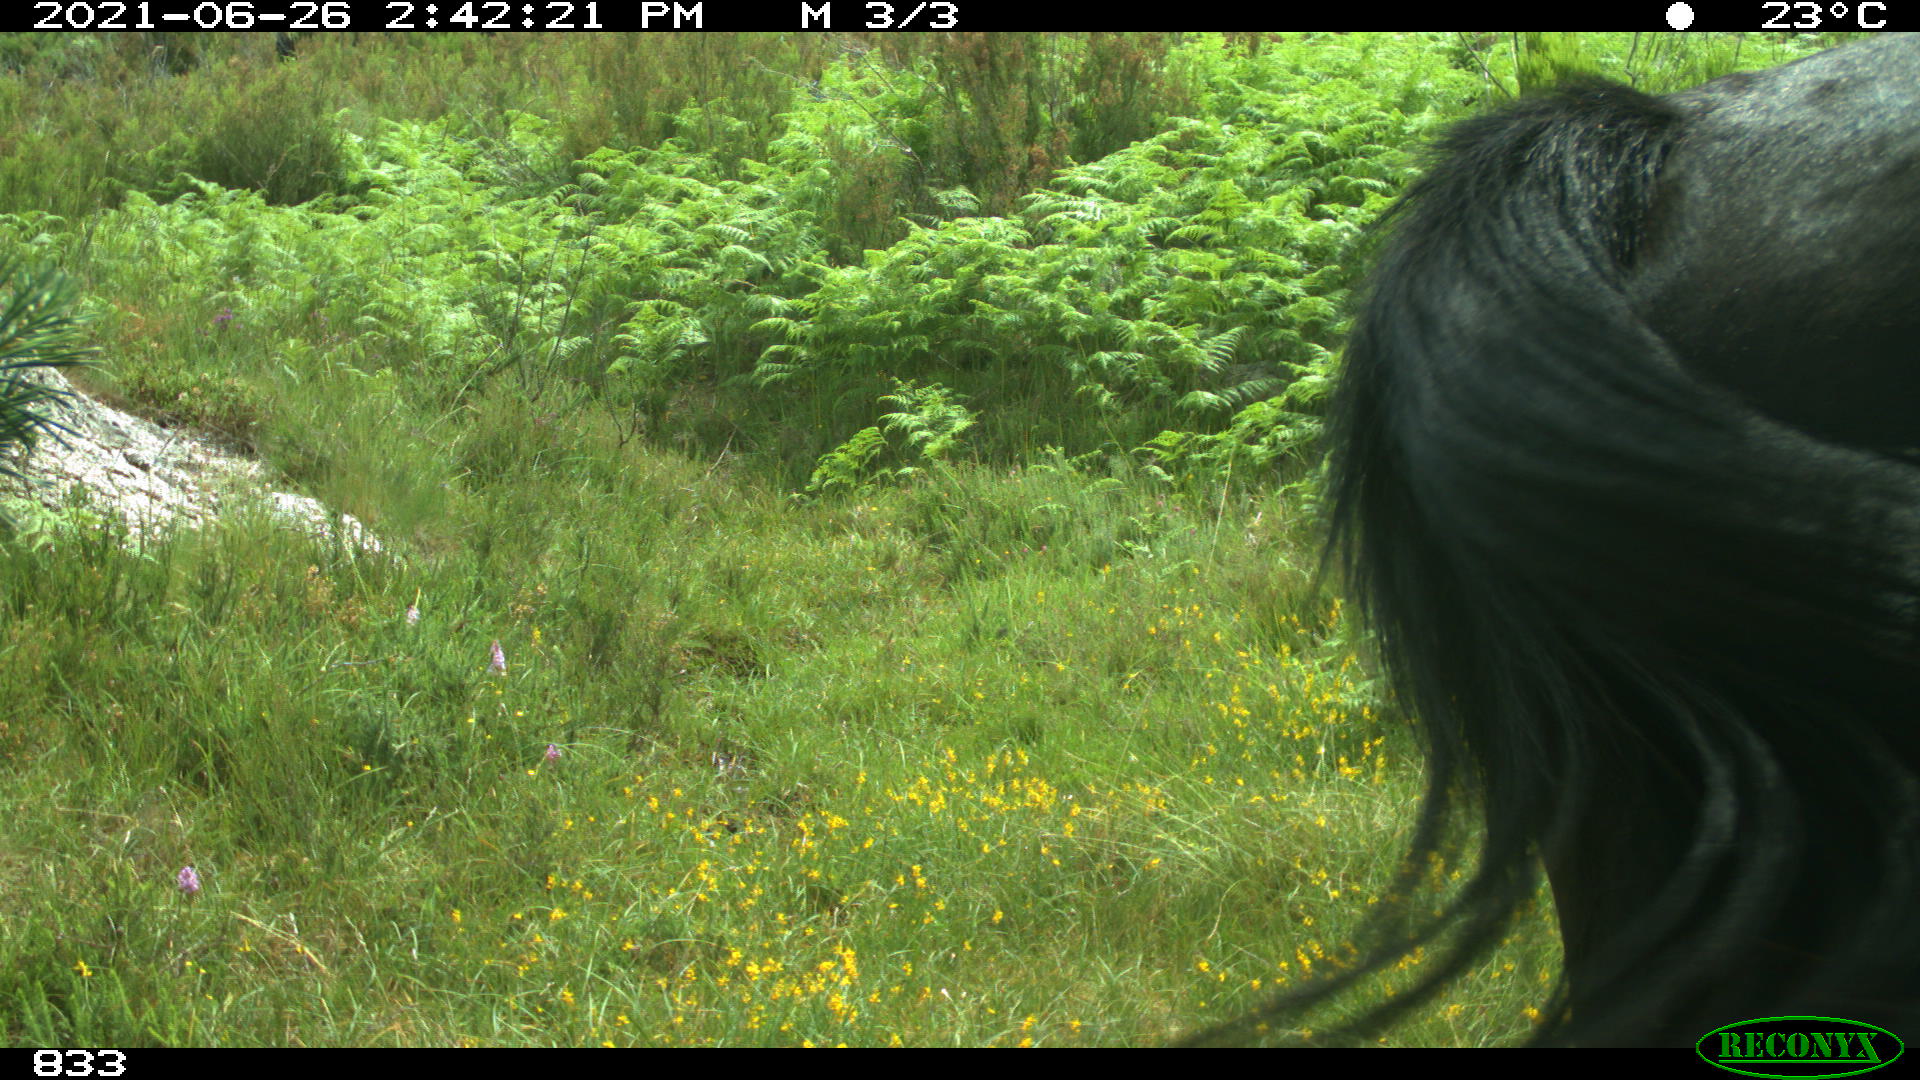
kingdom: Animalia
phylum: Chordata
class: Mammalia
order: Perissodactyla
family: Equidae
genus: Equus
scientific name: Equus caballus
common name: Horse
